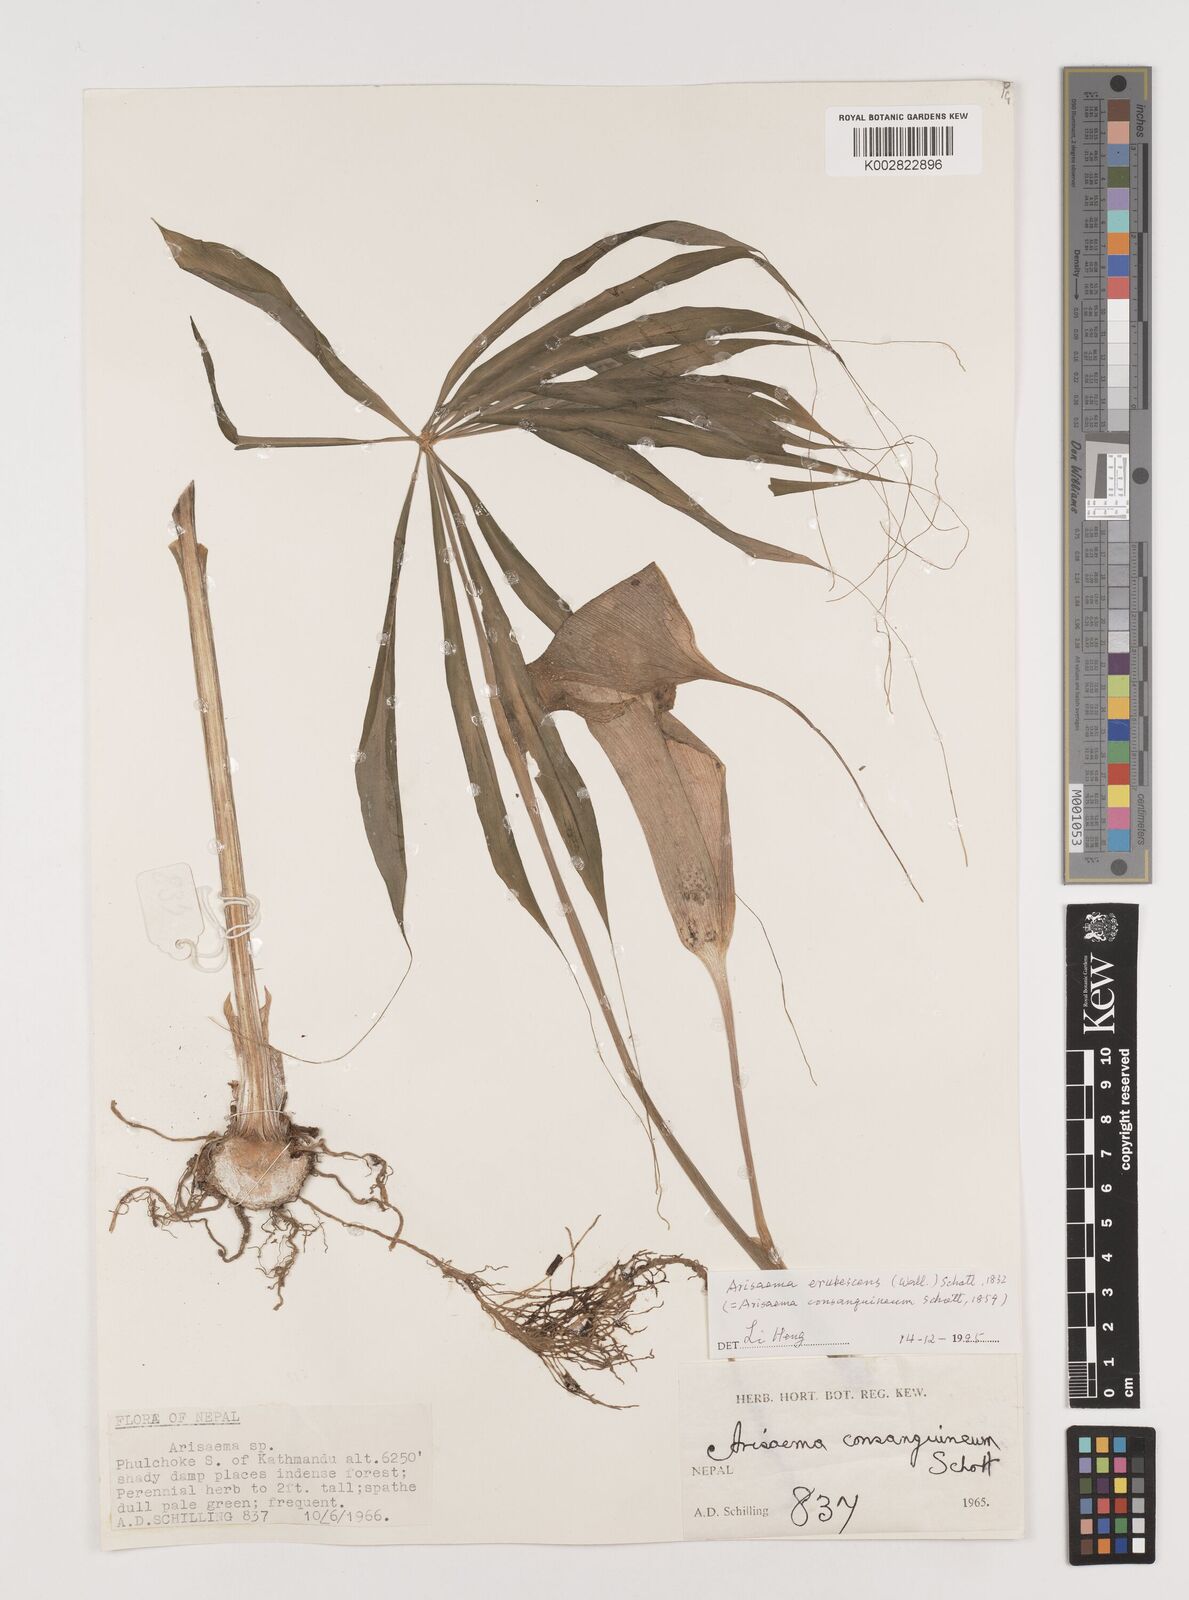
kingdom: Plantae
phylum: Tracheophyta
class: Liliopsida
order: Alismatales
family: Araceae
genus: Arisaema
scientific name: Arisaema erubescens
